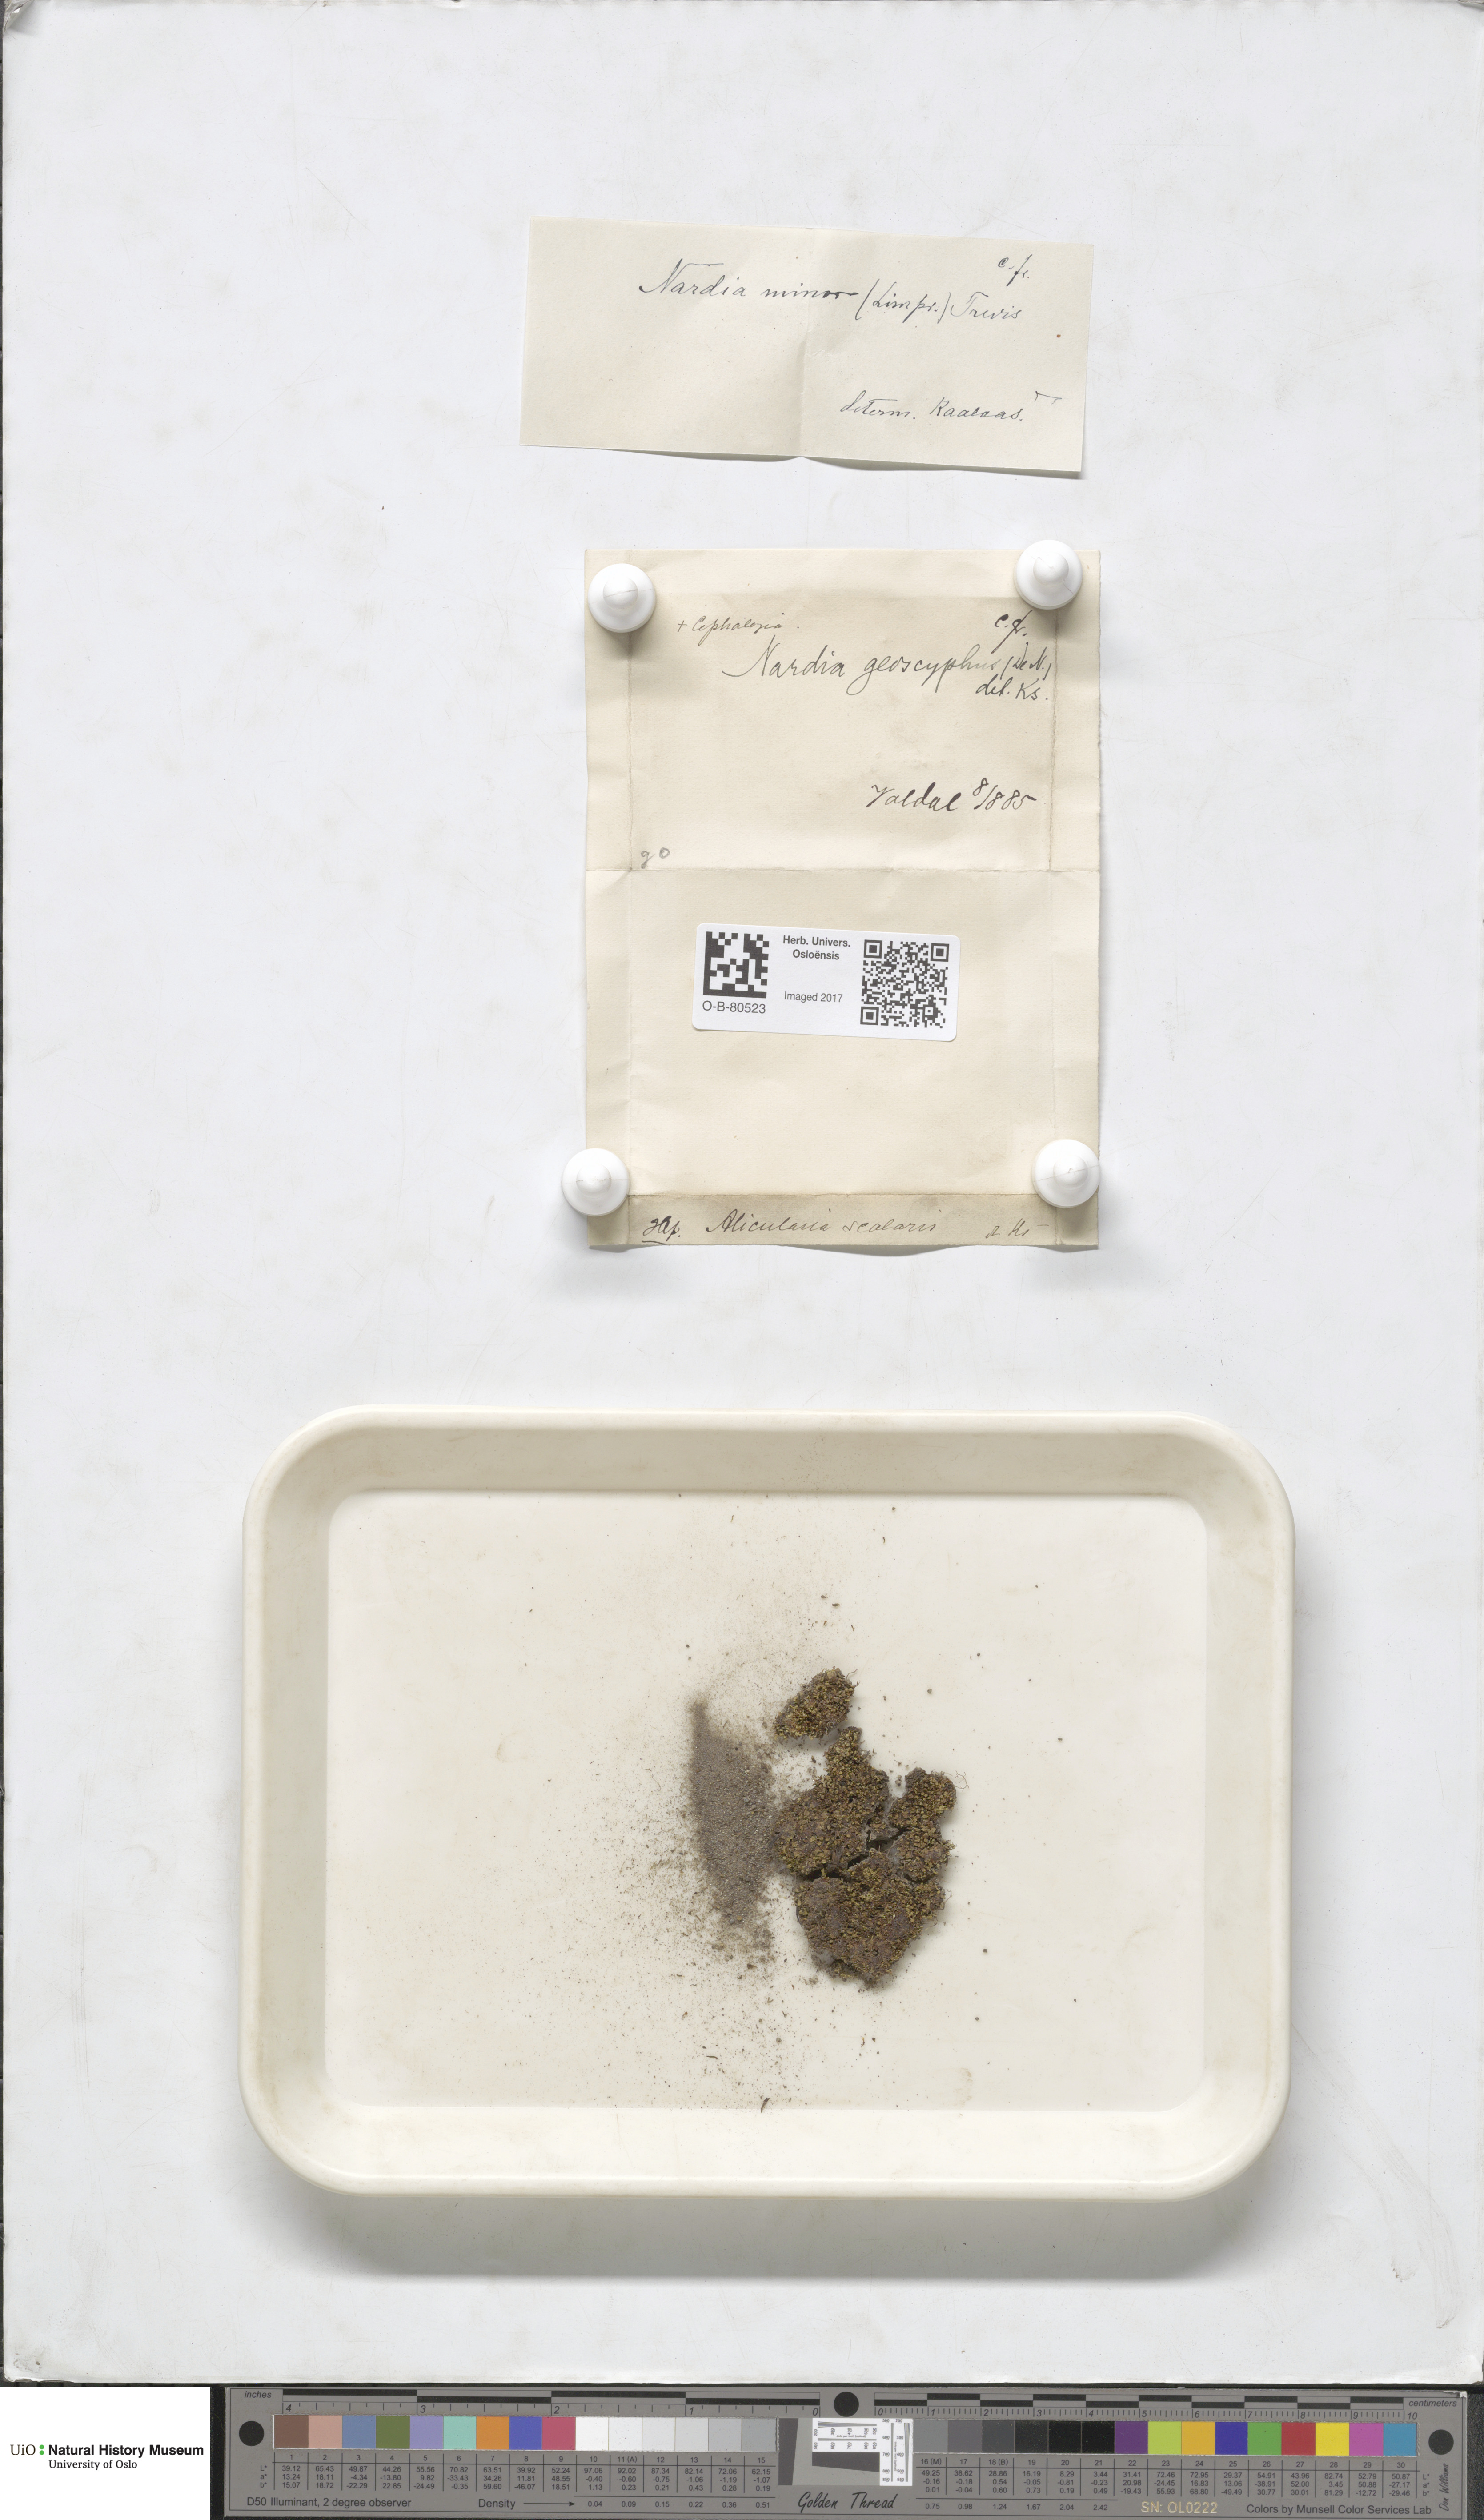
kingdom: Plantae
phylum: Marchantiophyta
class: Jungermanniopsida
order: Jungermanniales
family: Gymnomitriaceae
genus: Nardia
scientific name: Nardia geoscyphus
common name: Earth-cup flapwort
